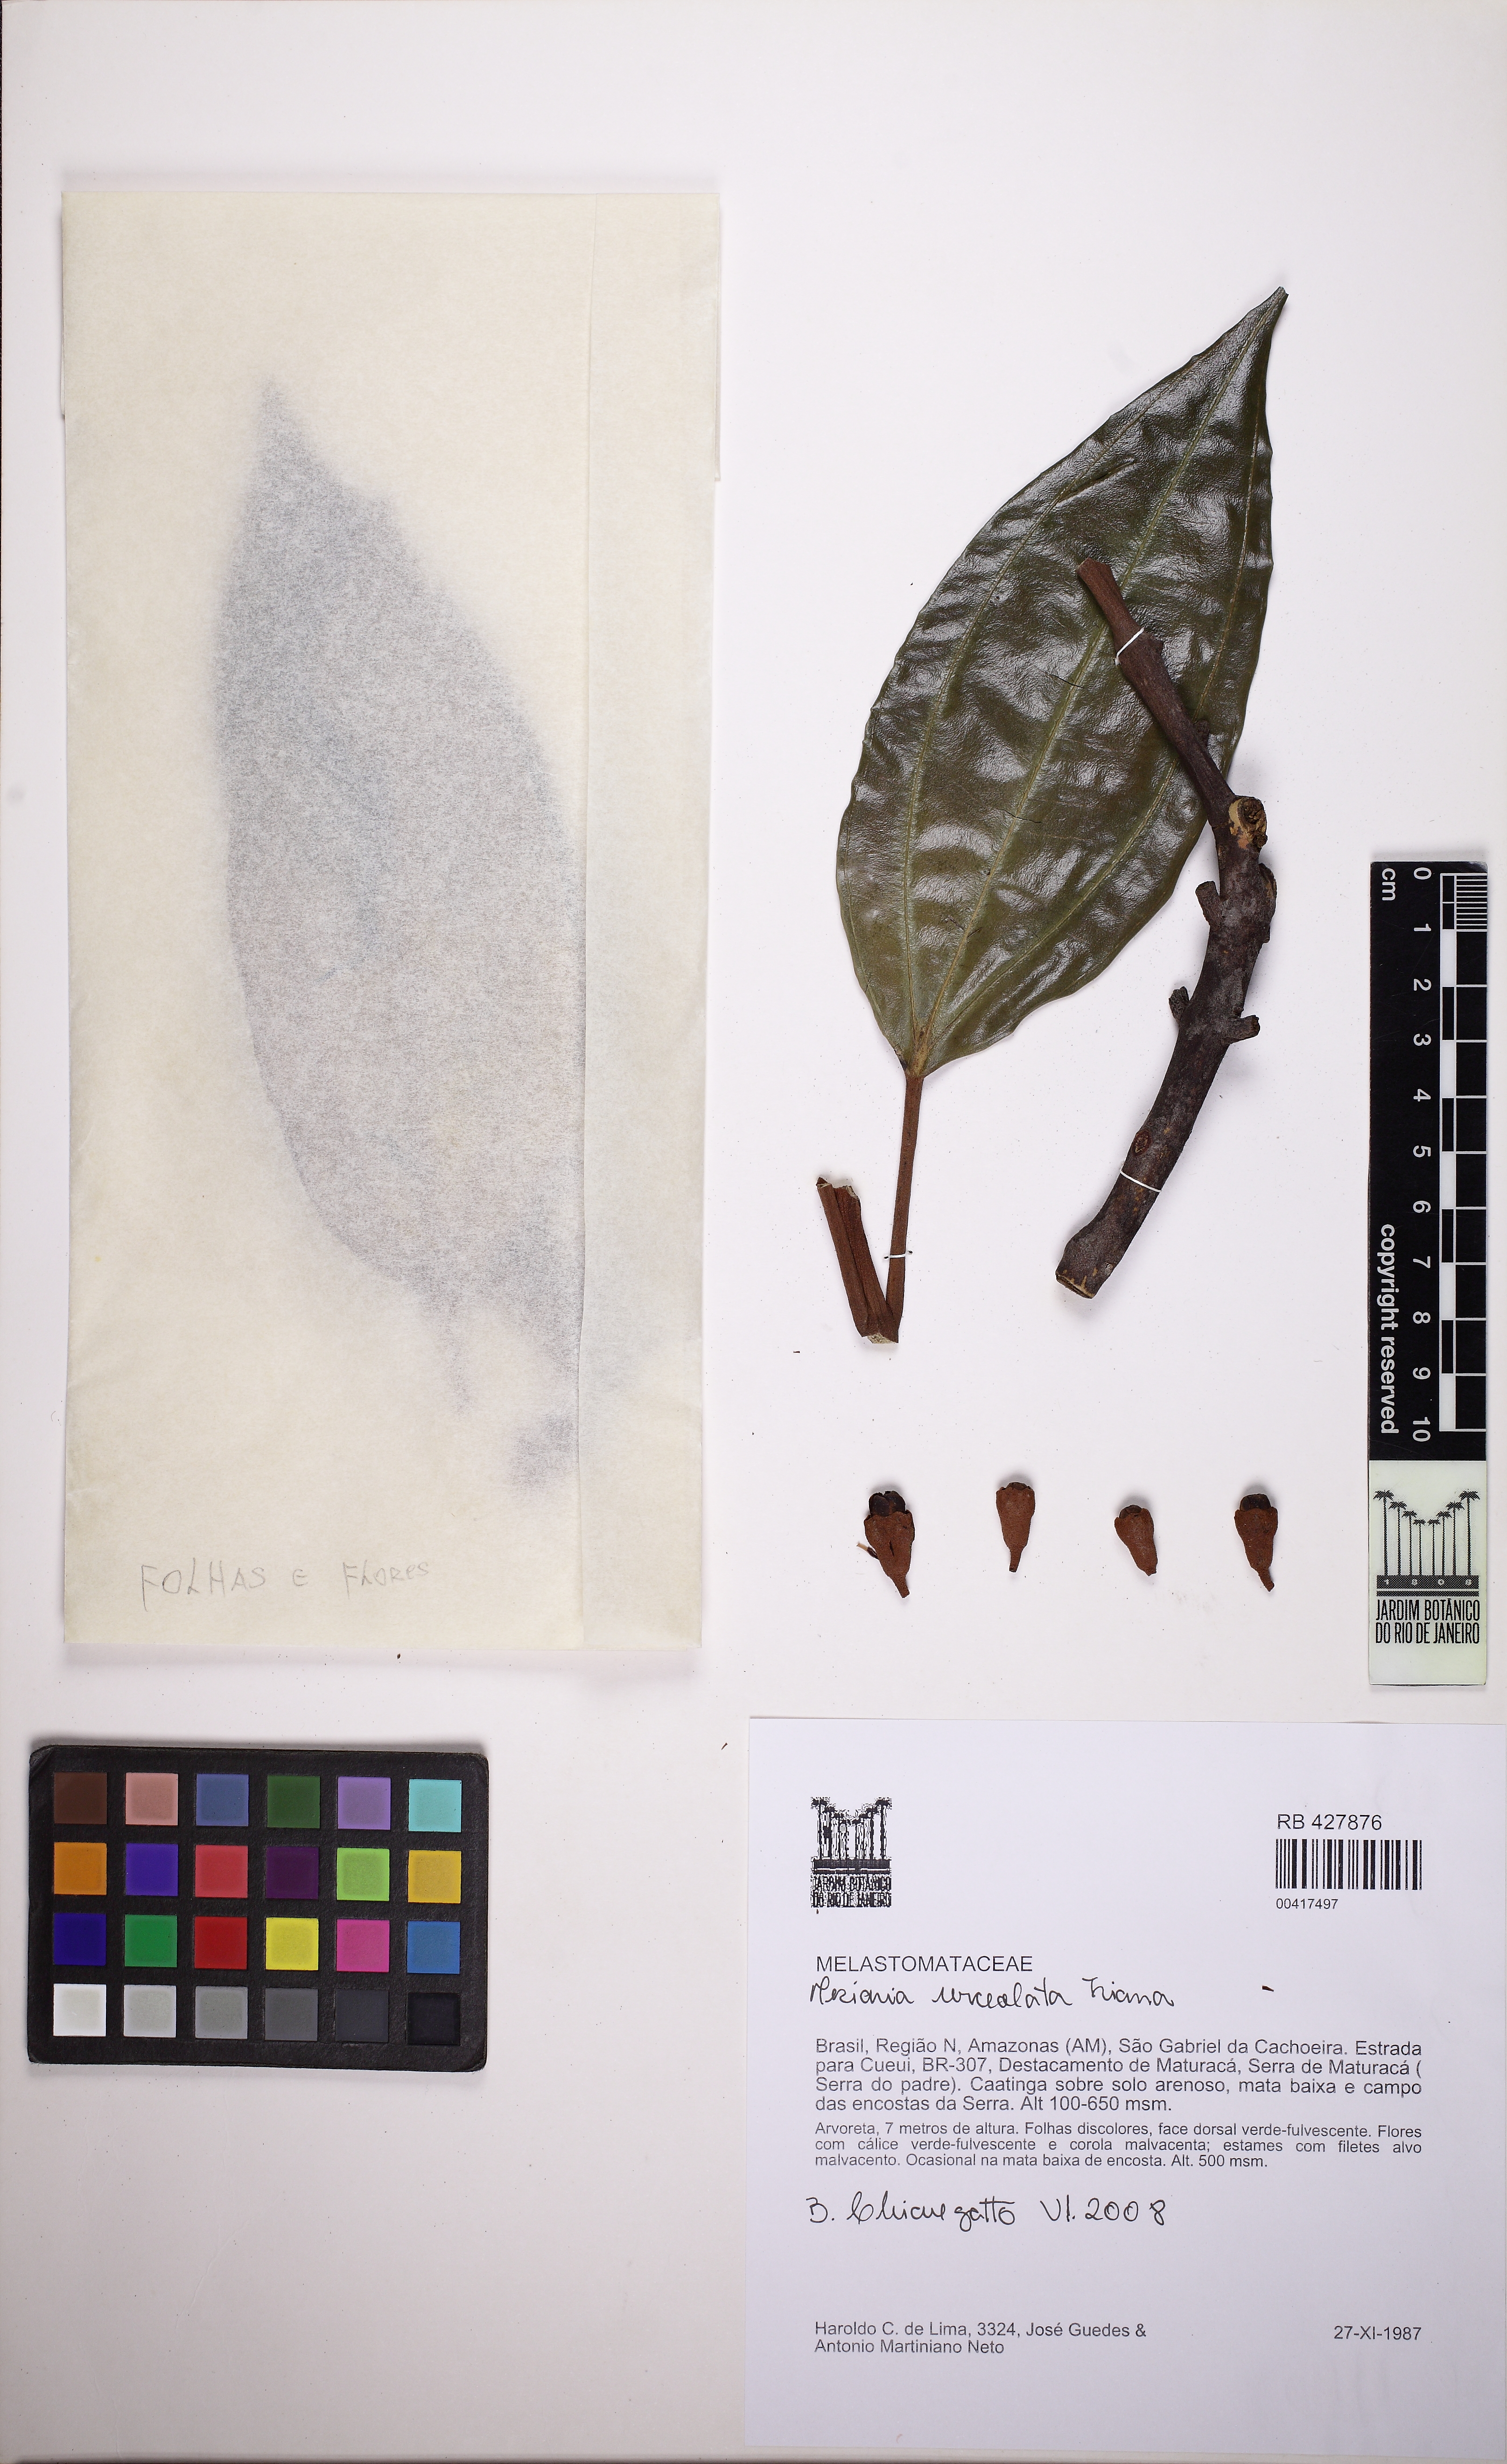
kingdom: Plantae
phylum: Tracheophyta
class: Magnoliopsida
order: Myrtales
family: Melastomataceae
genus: Meriania
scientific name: Meriania urceolata
